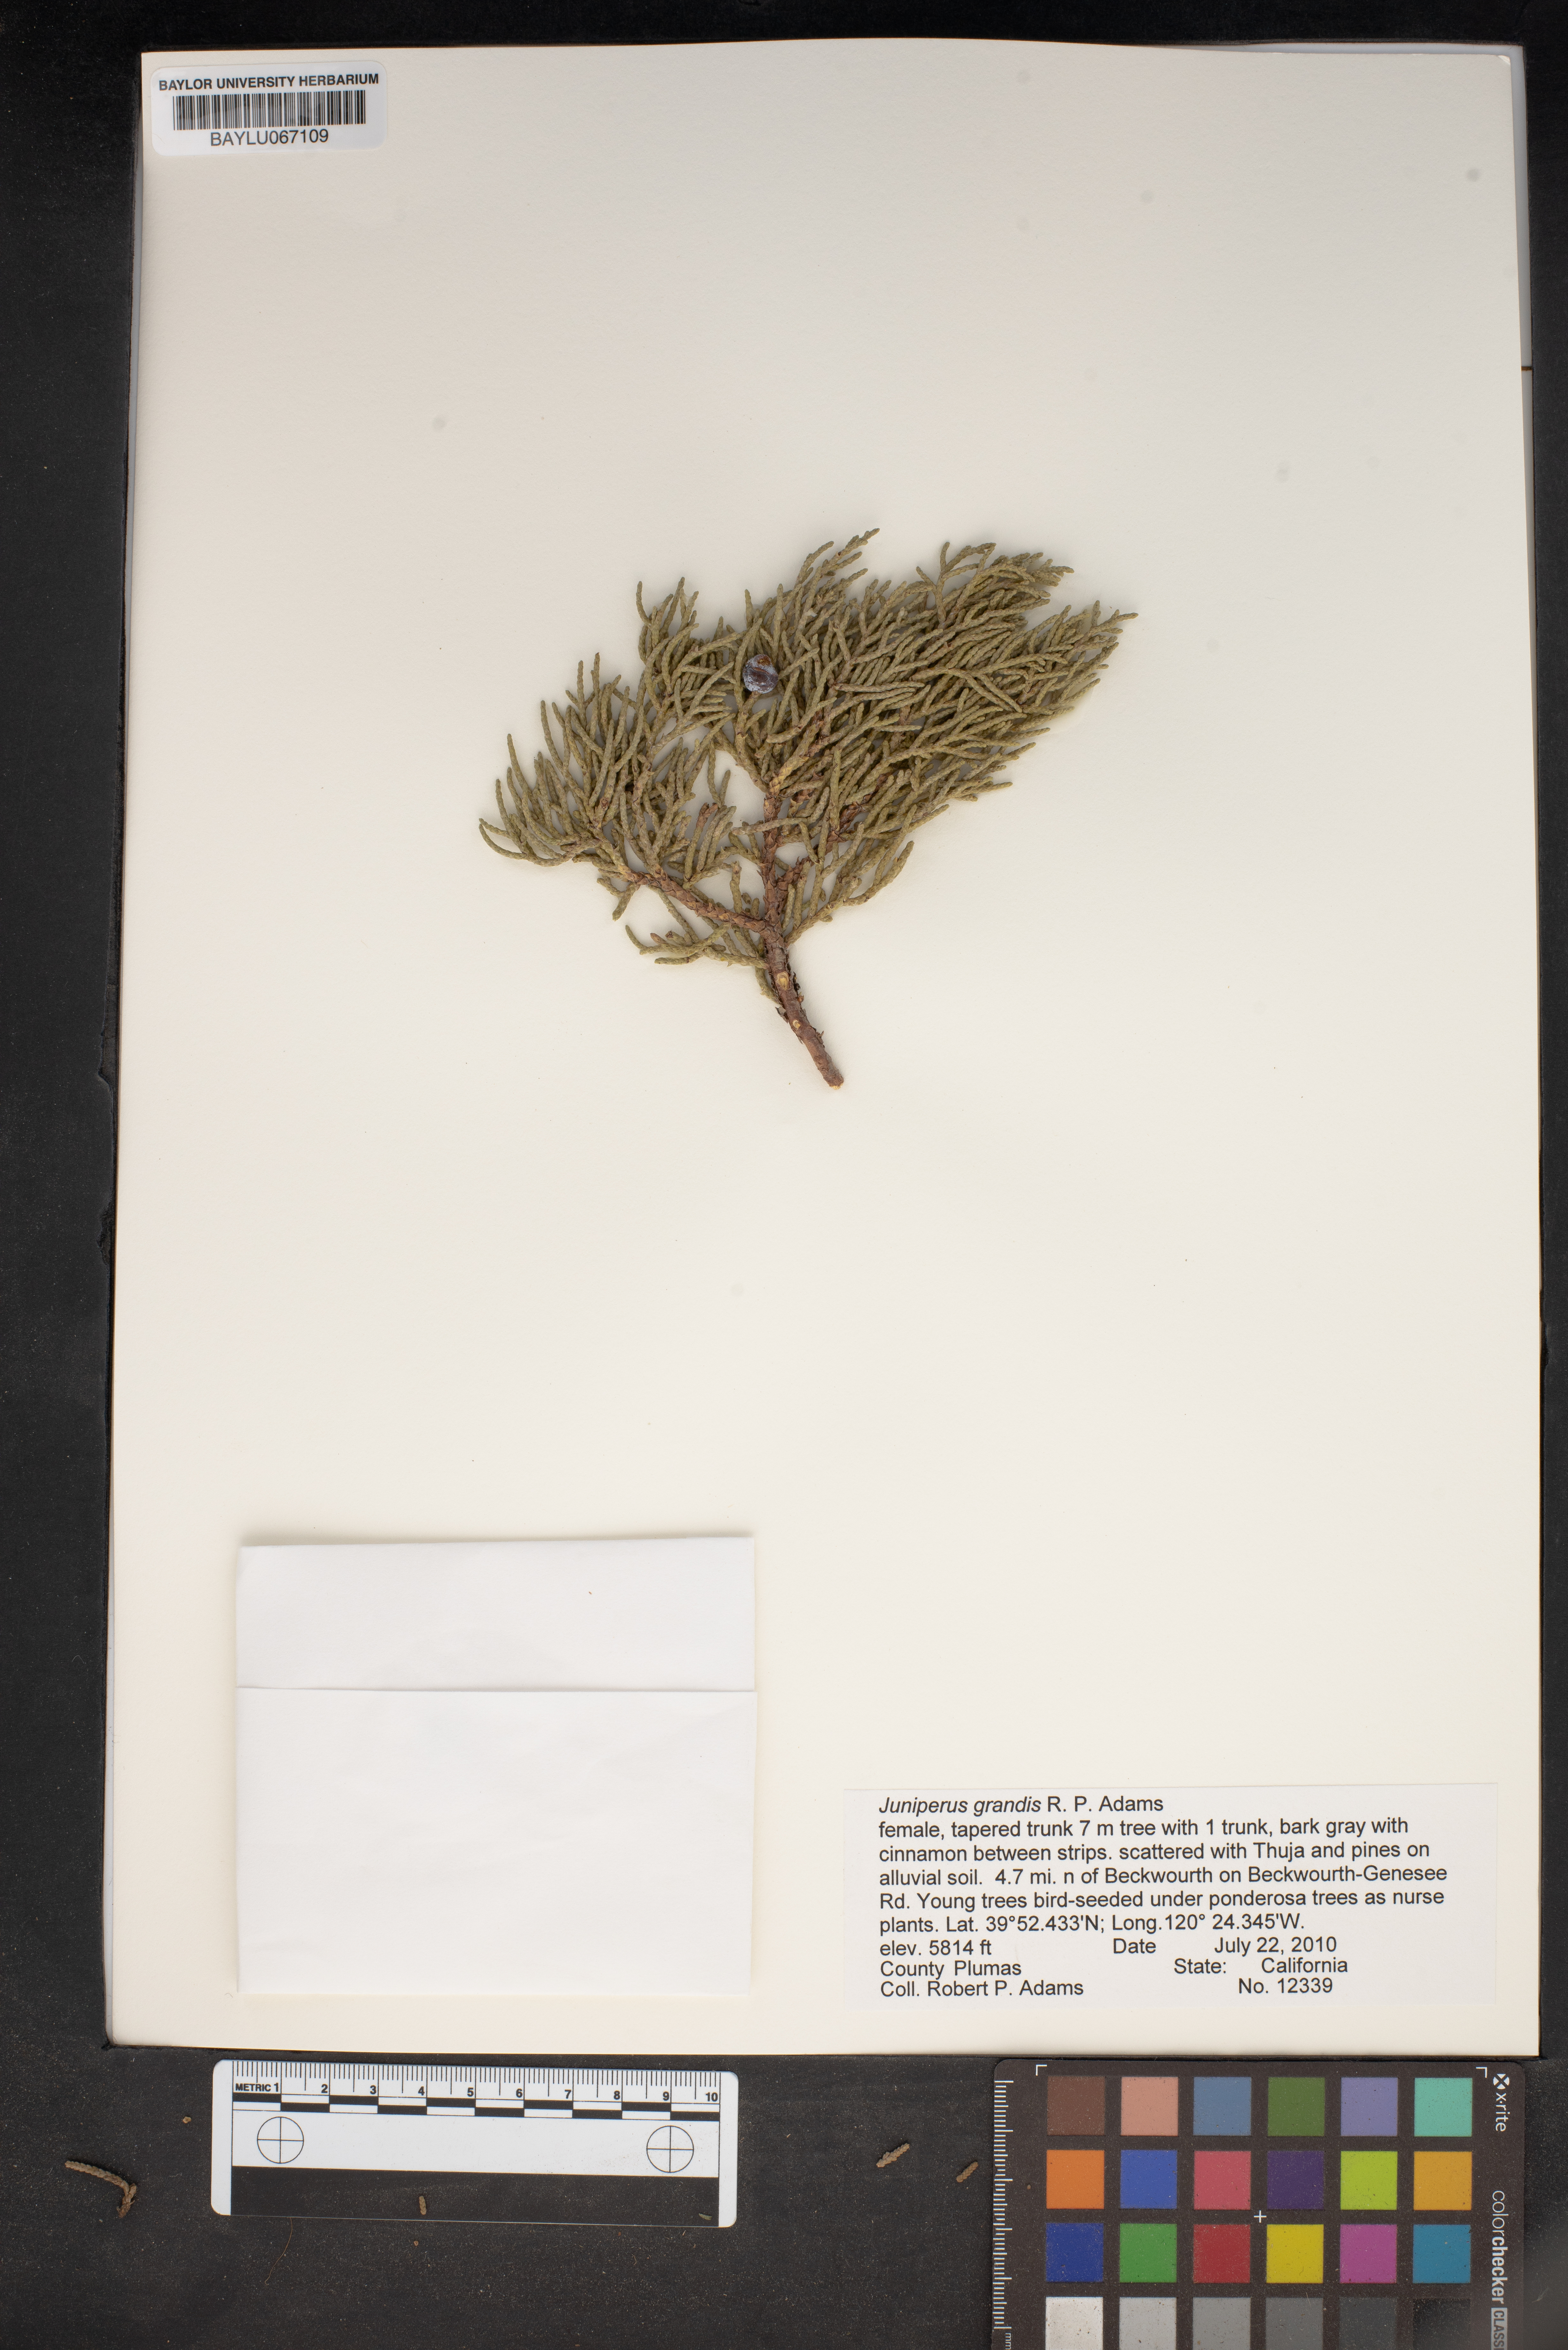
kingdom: Plantae
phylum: Tracheophyta
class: Pinopsida
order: Pinales
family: Cupressaceae
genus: Juniperus
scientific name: Juniperus occidentalis
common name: Western juniper
